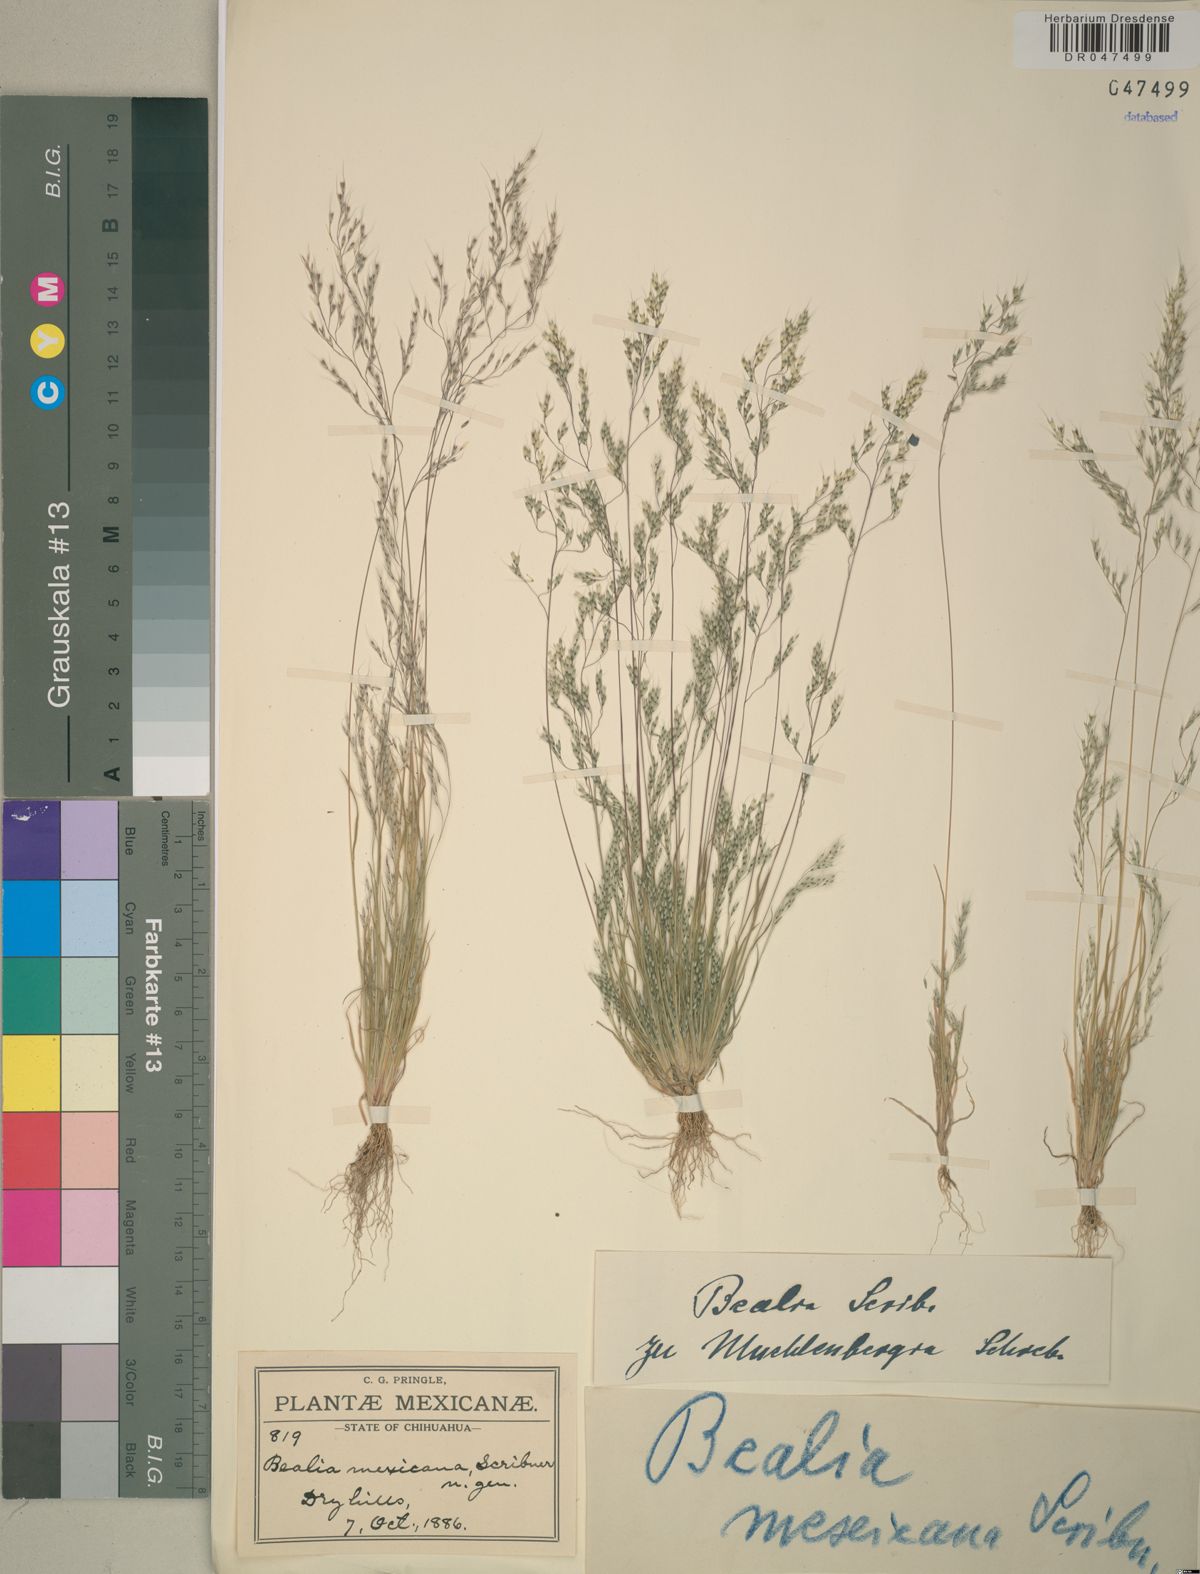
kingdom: Plantae
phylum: Tracheophyta
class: Liliopsida
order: Poales
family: Poaceae
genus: Muhlenbergia
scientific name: Muhlenbergia biloba
